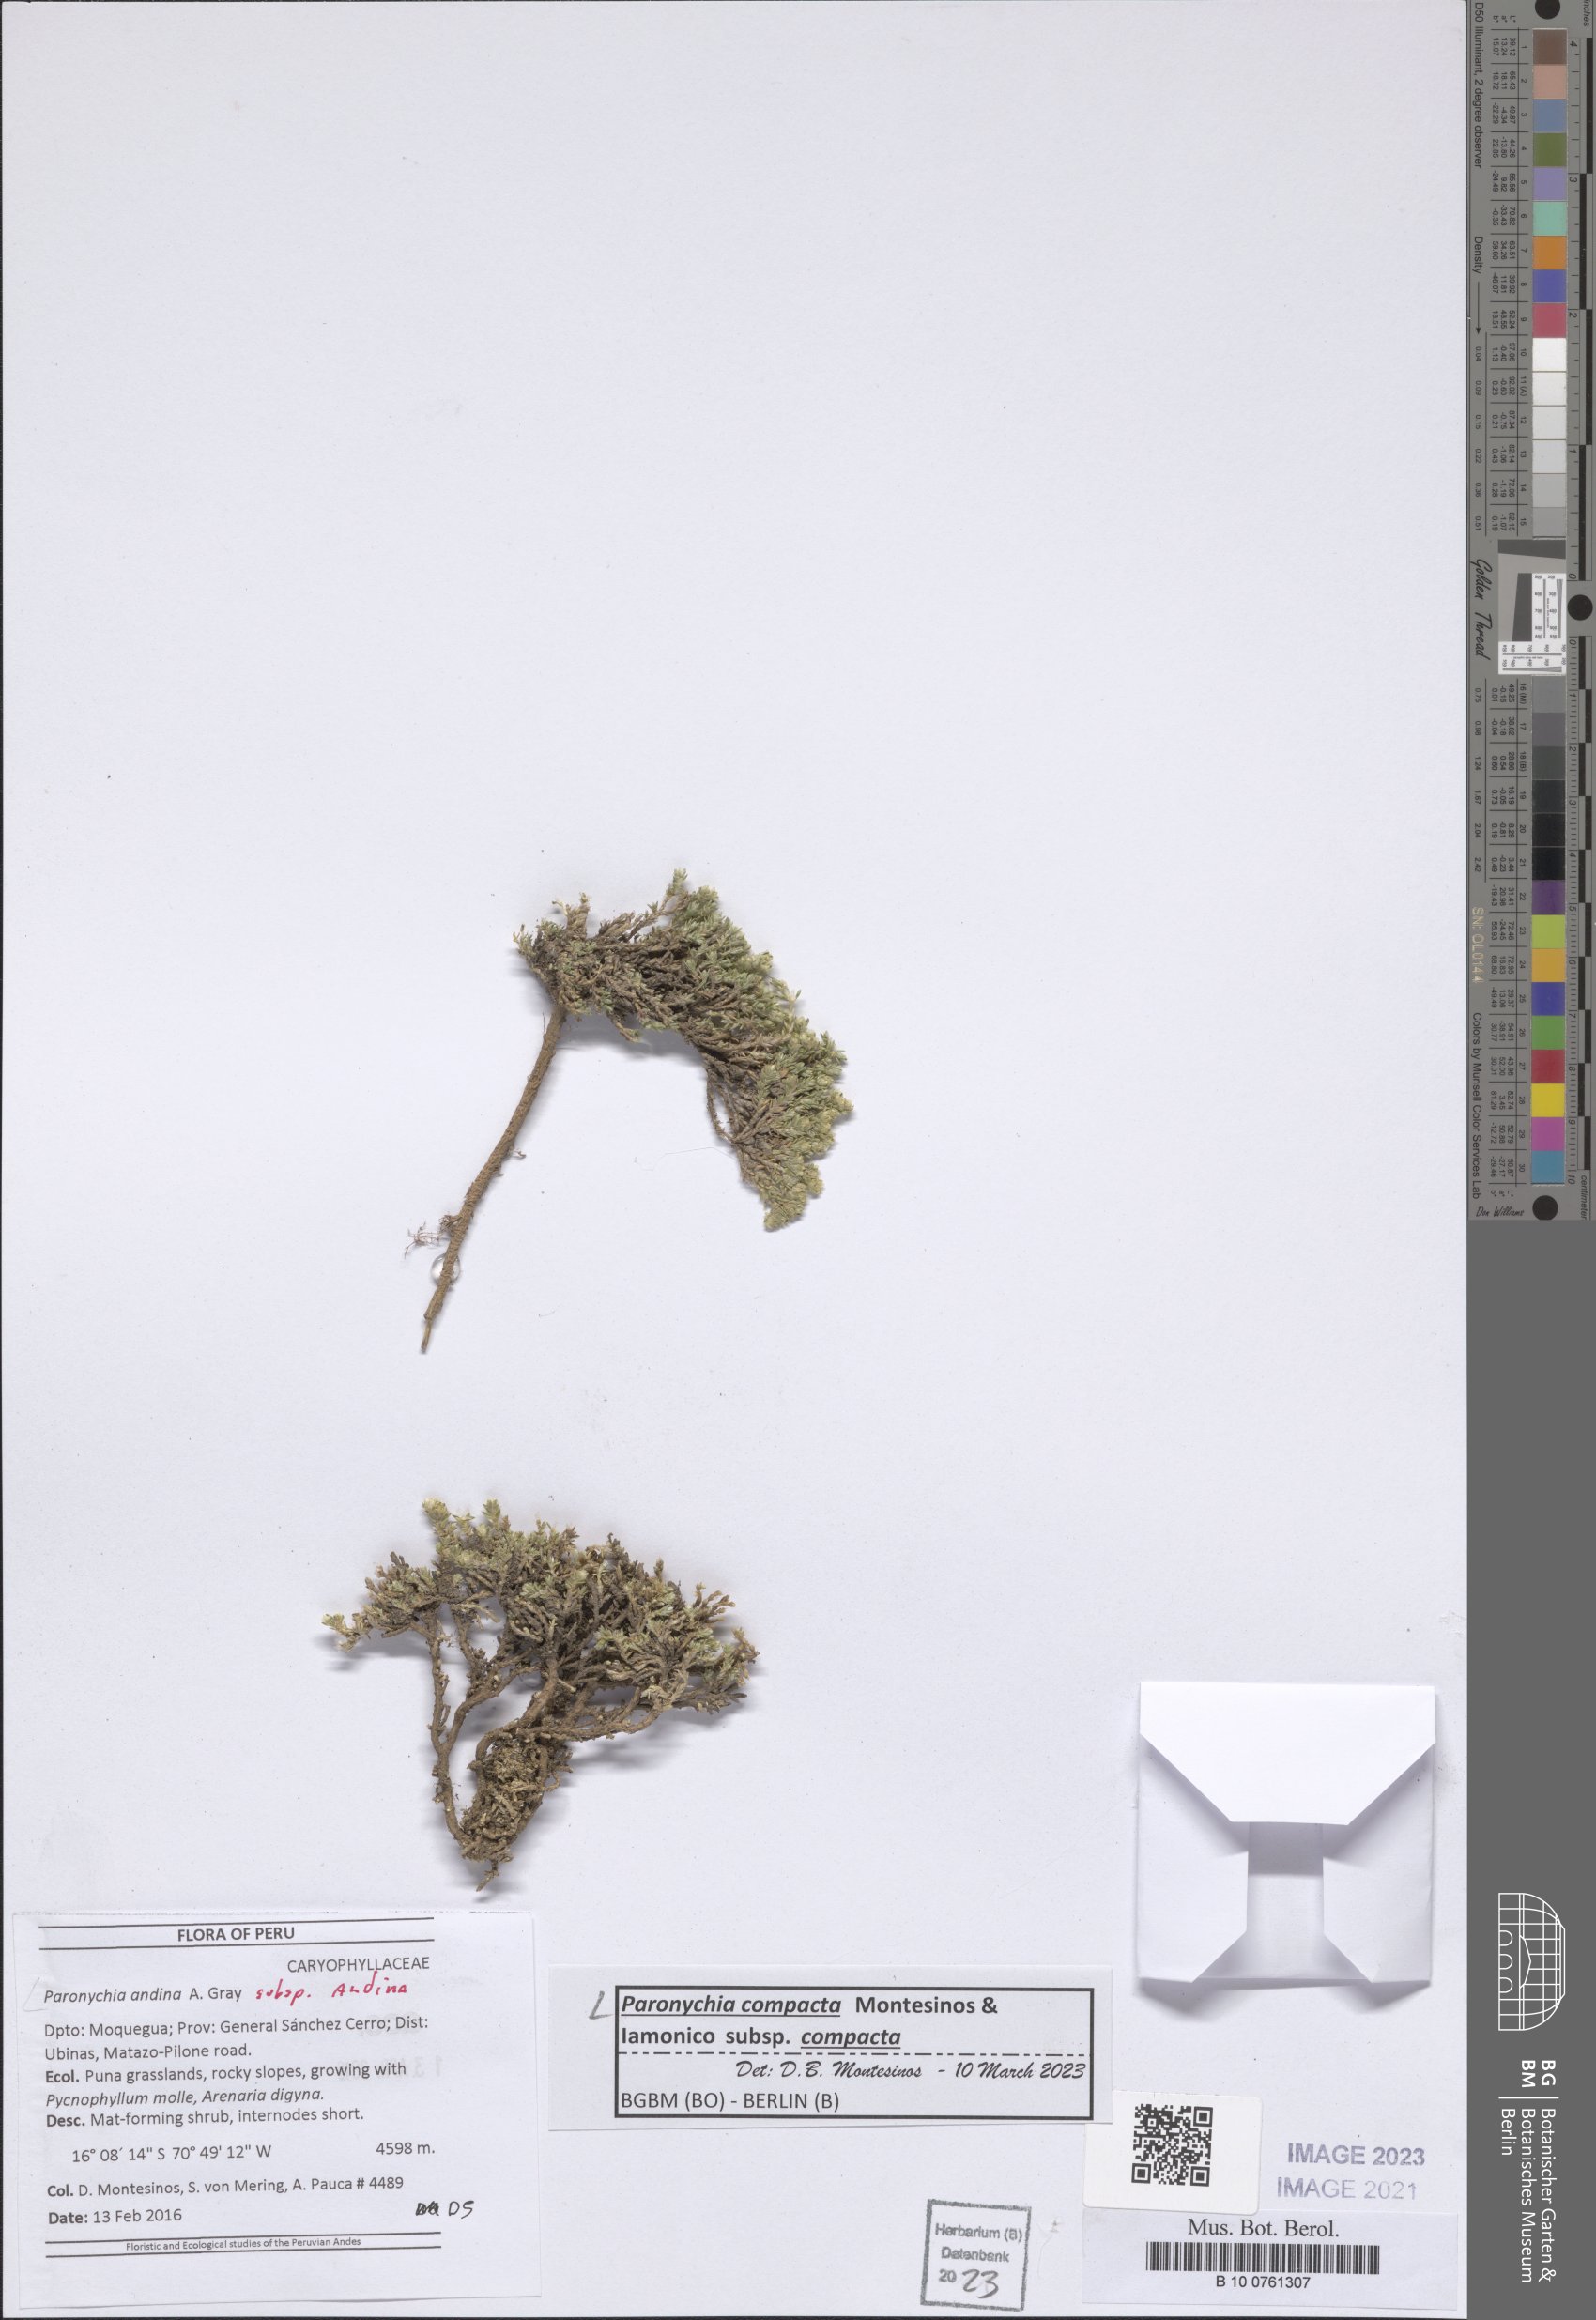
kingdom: Plantae
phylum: Tracheophyta
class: Magnoliopsida
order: Caryophyllales
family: Caryophyllaceae
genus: Paronychia
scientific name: Paronychia
